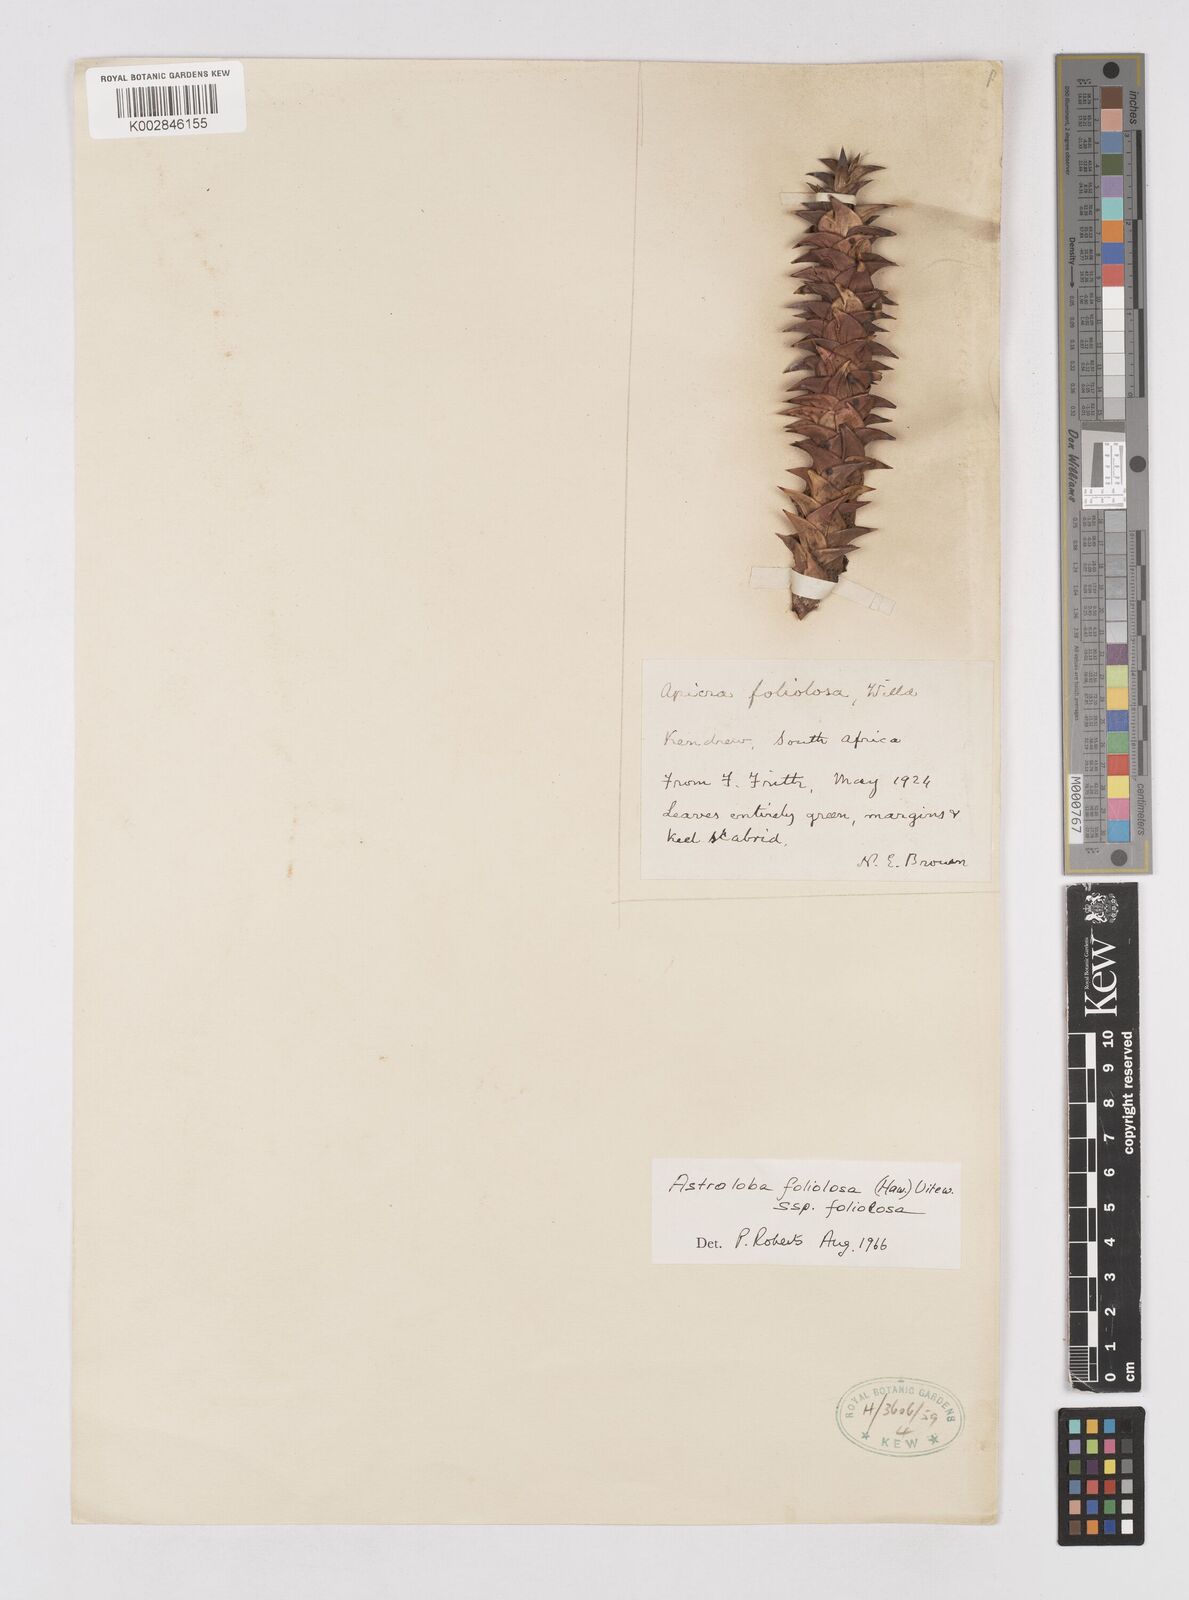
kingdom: Plantae
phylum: Tracheophyta
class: Liliopsida
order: Asparagales
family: Asphodelaceae
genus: Astroloba
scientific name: Astroloba foliolosa
